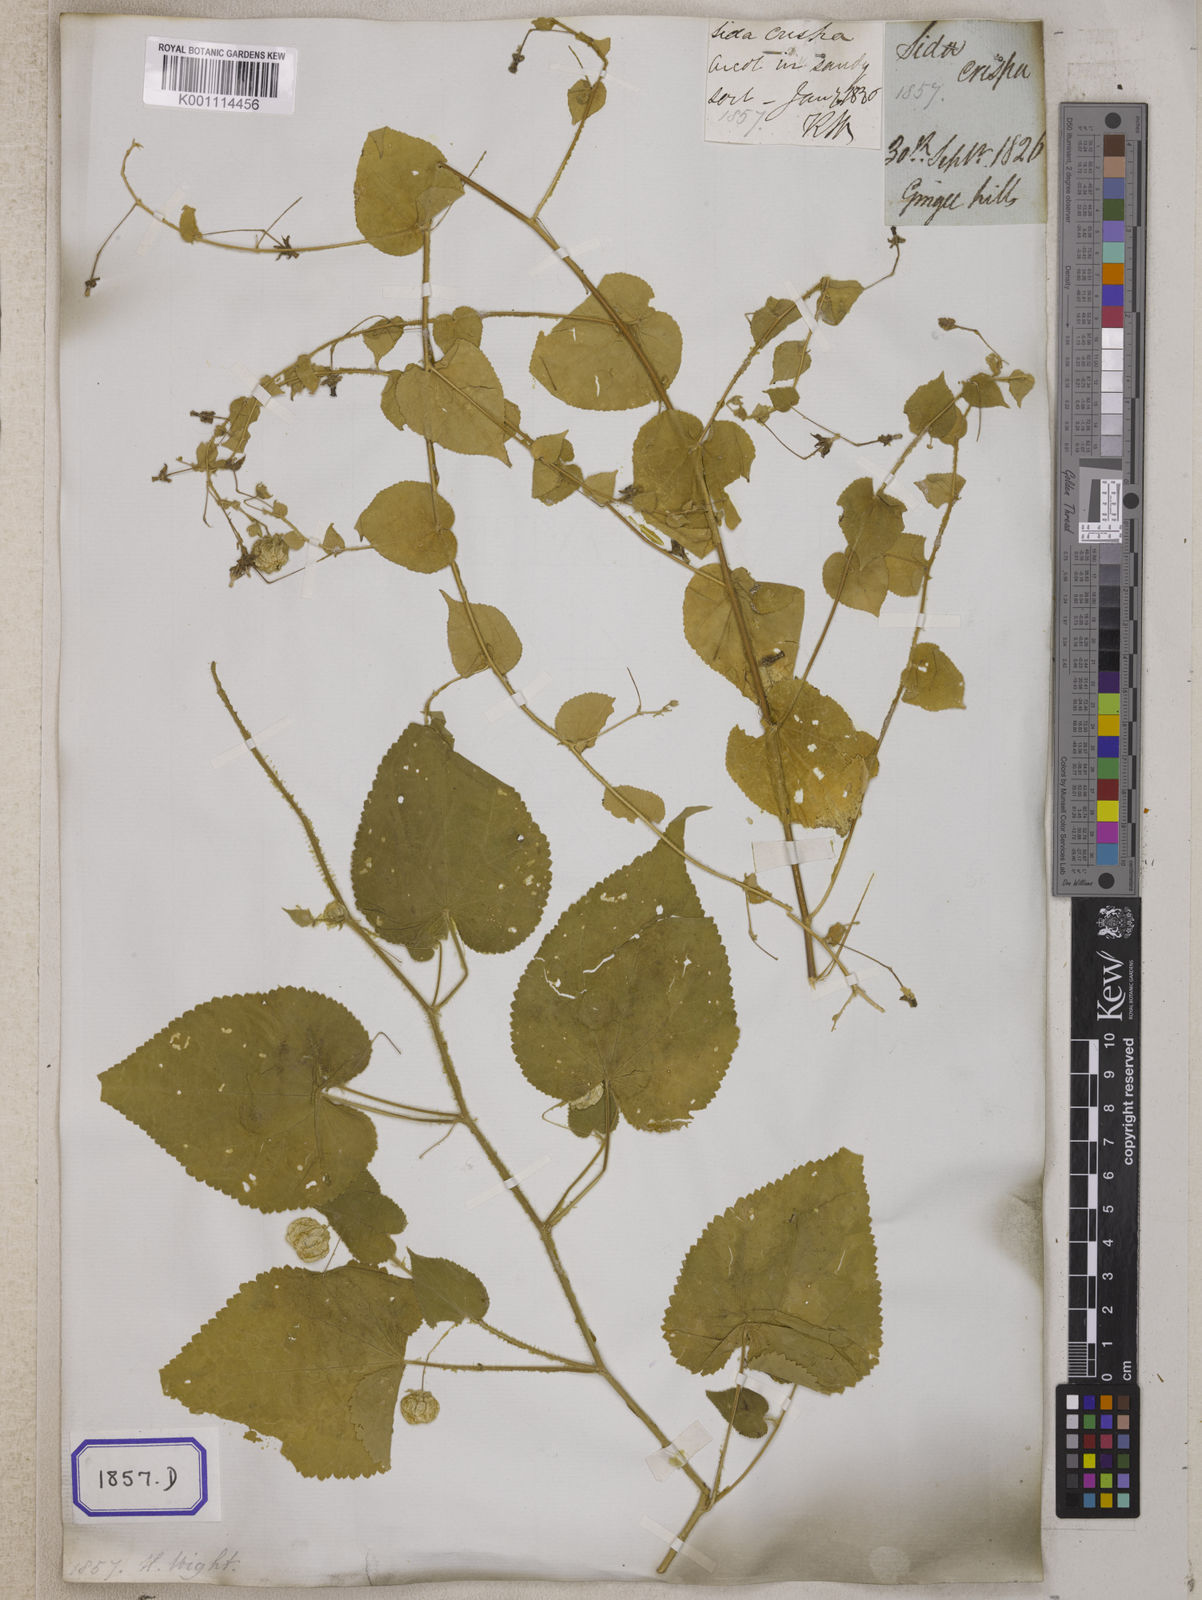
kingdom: Plantae
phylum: Tracheophyta
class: Magnoliopsida
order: Malvales
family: Malvaceae
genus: Herissantia
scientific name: Herissantia crispa
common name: Bladdermallow
